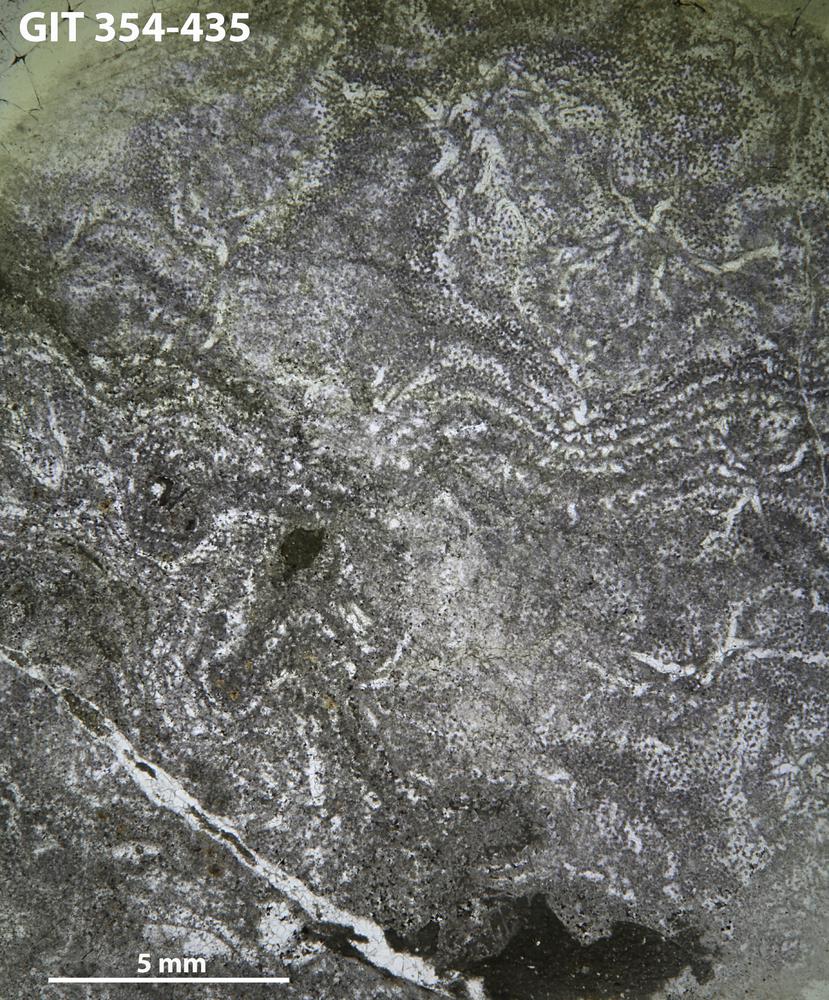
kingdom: Animalia
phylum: Porifera
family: Clathrodictyidae
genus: Clathrodictyon
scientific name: Clathrodictyon Stromatopora variolaris
